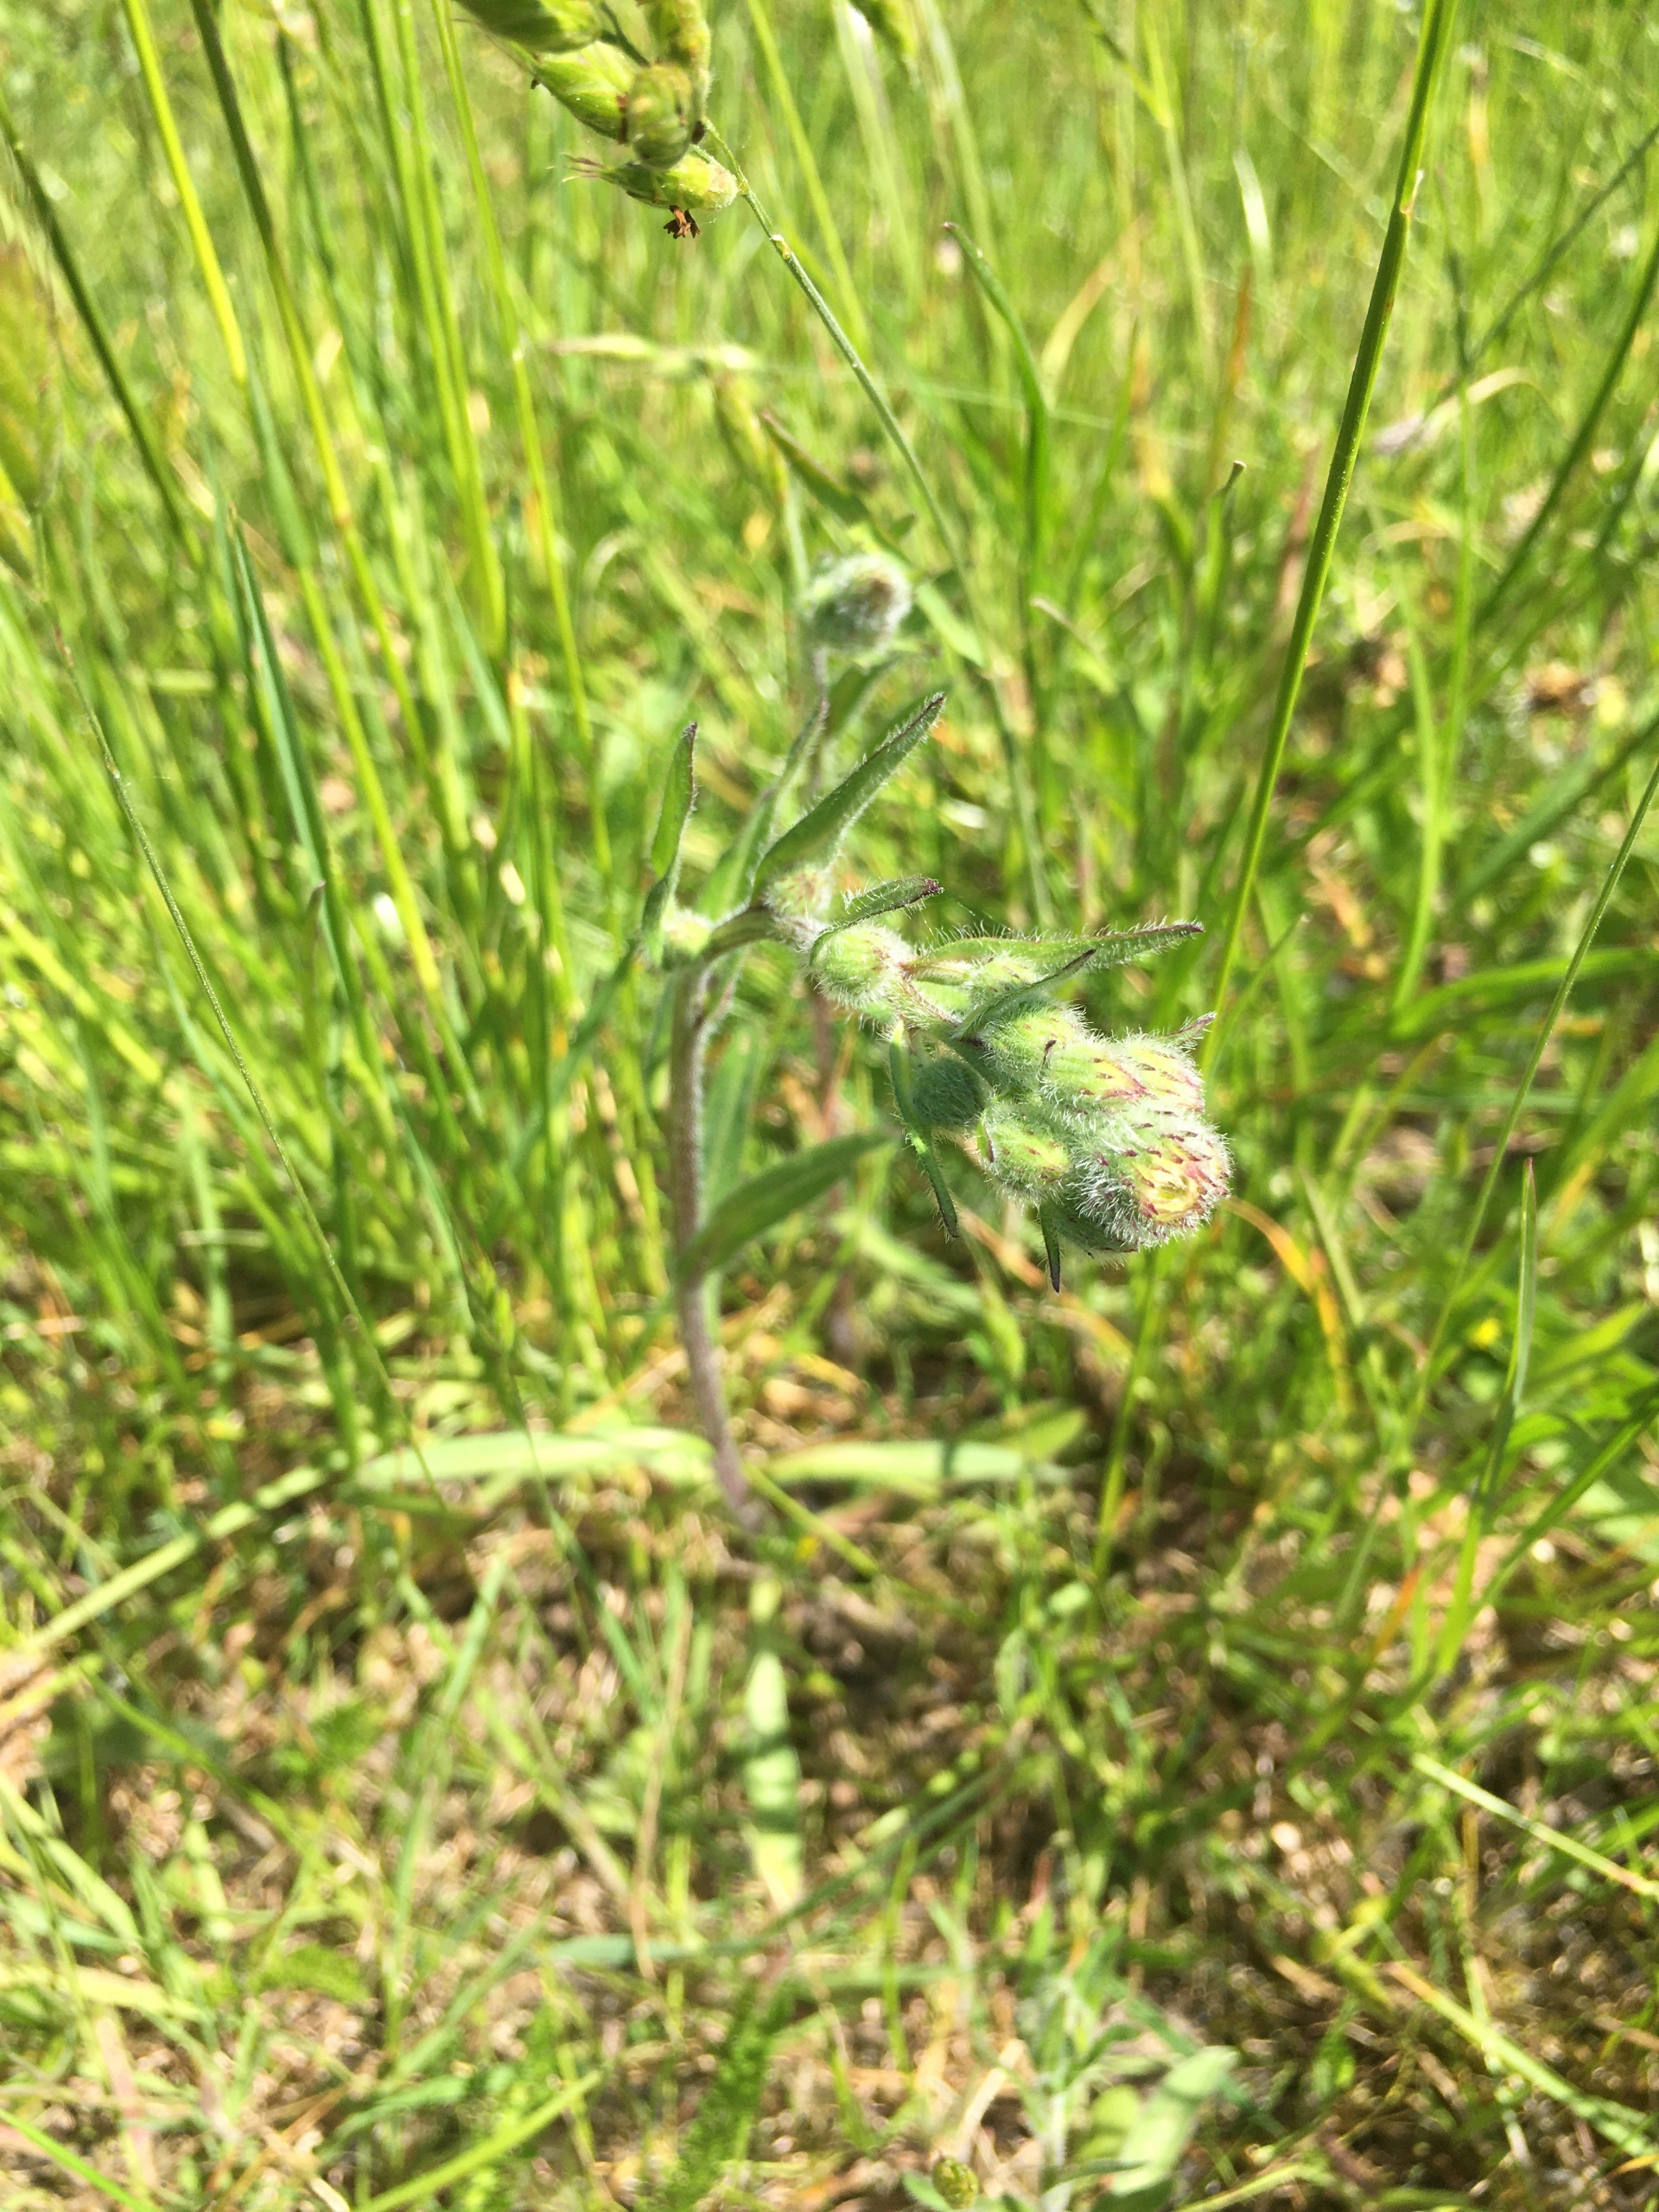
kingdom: Plantae
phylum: Tracheophyta
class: Magnoliopsida
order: Asterales
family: Asteraceae
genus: Erigeron
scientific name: Erigeron acris
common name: Bitter bakkestjerne
